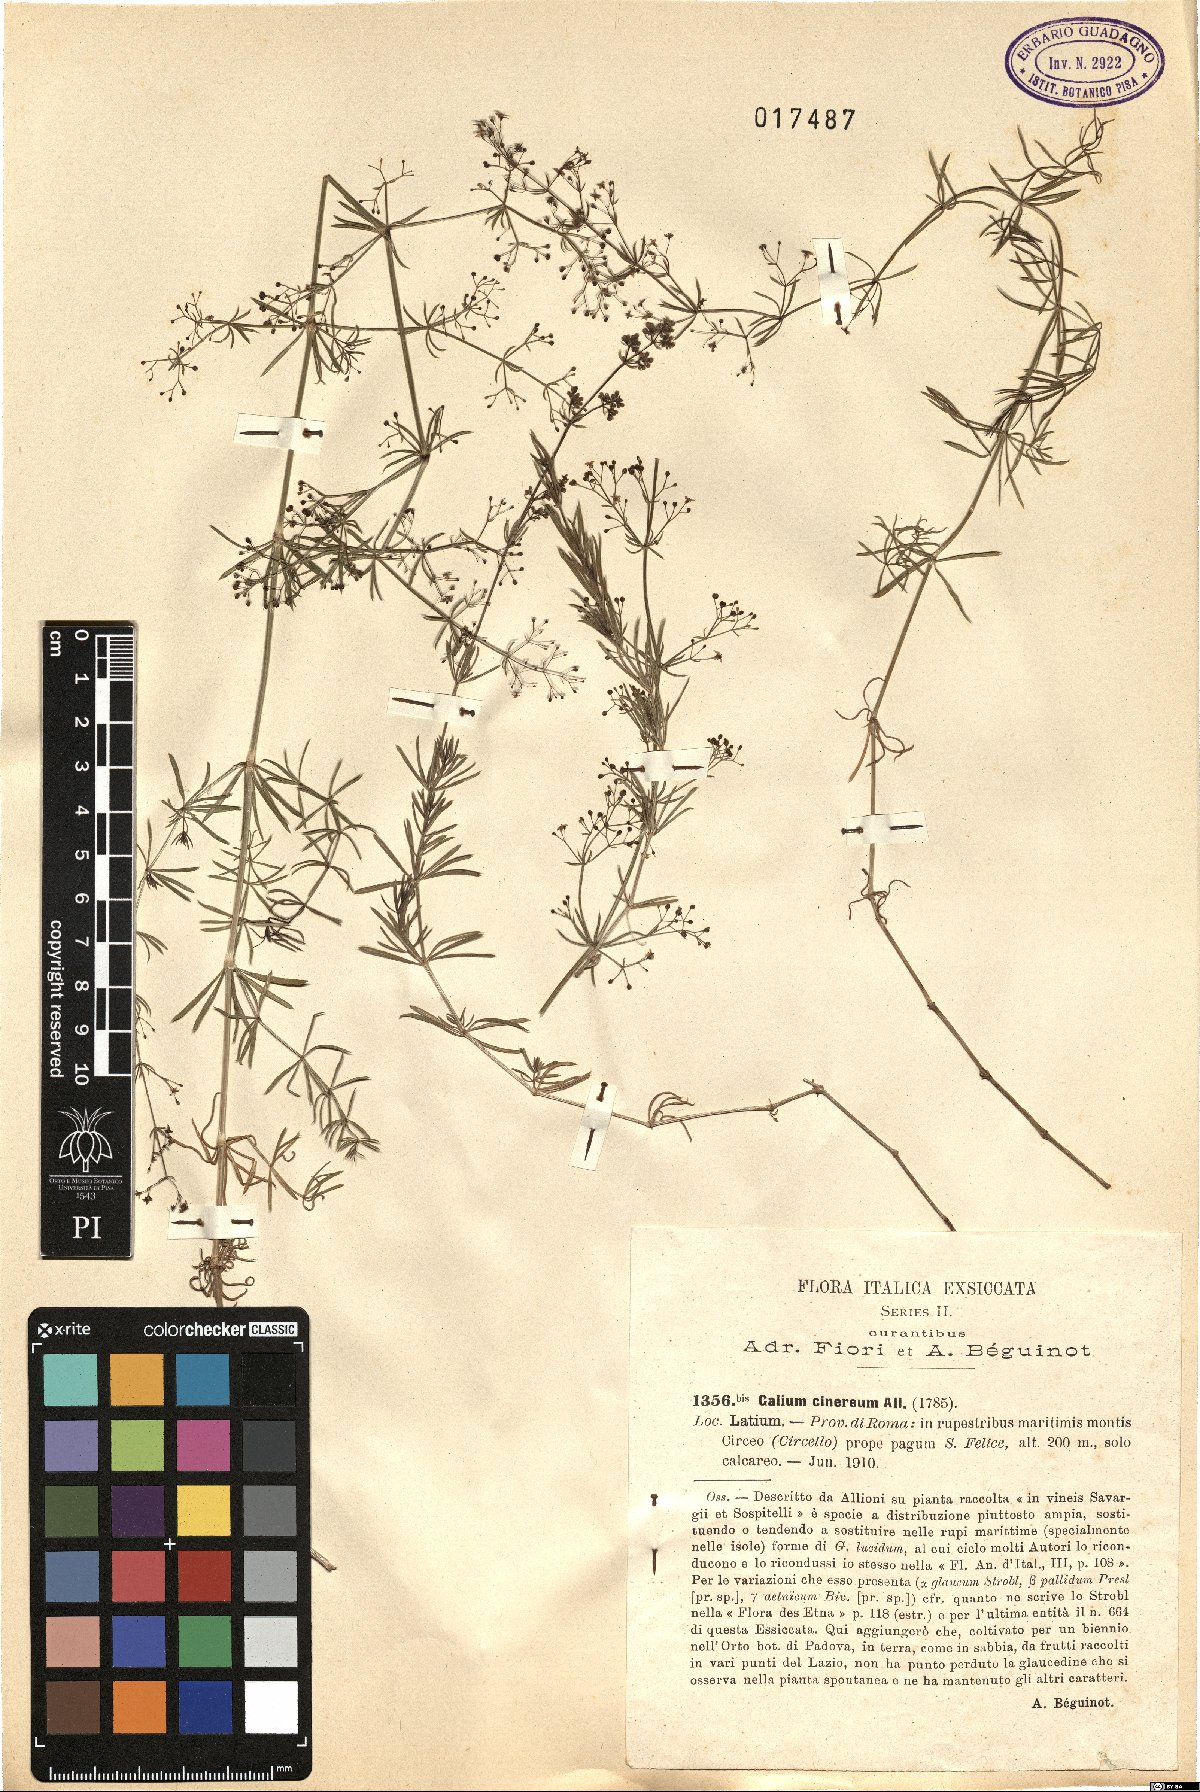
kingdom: Plantae
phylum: Tracheophyta
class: Magnoliopsida
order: Gentianales
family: Rubiaceae
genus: Galium
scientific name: Galium cinereum
